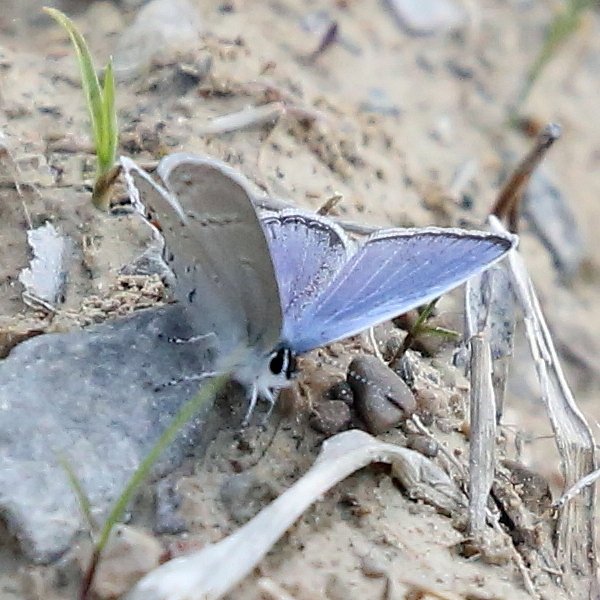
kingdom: Animalia
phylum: Arthropoda
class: Insecta
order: Lepidoptera
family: Lycaenidae
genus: Elkalyce
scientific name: Elkalyce comyntas
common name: Eastern Tailed-Blue
